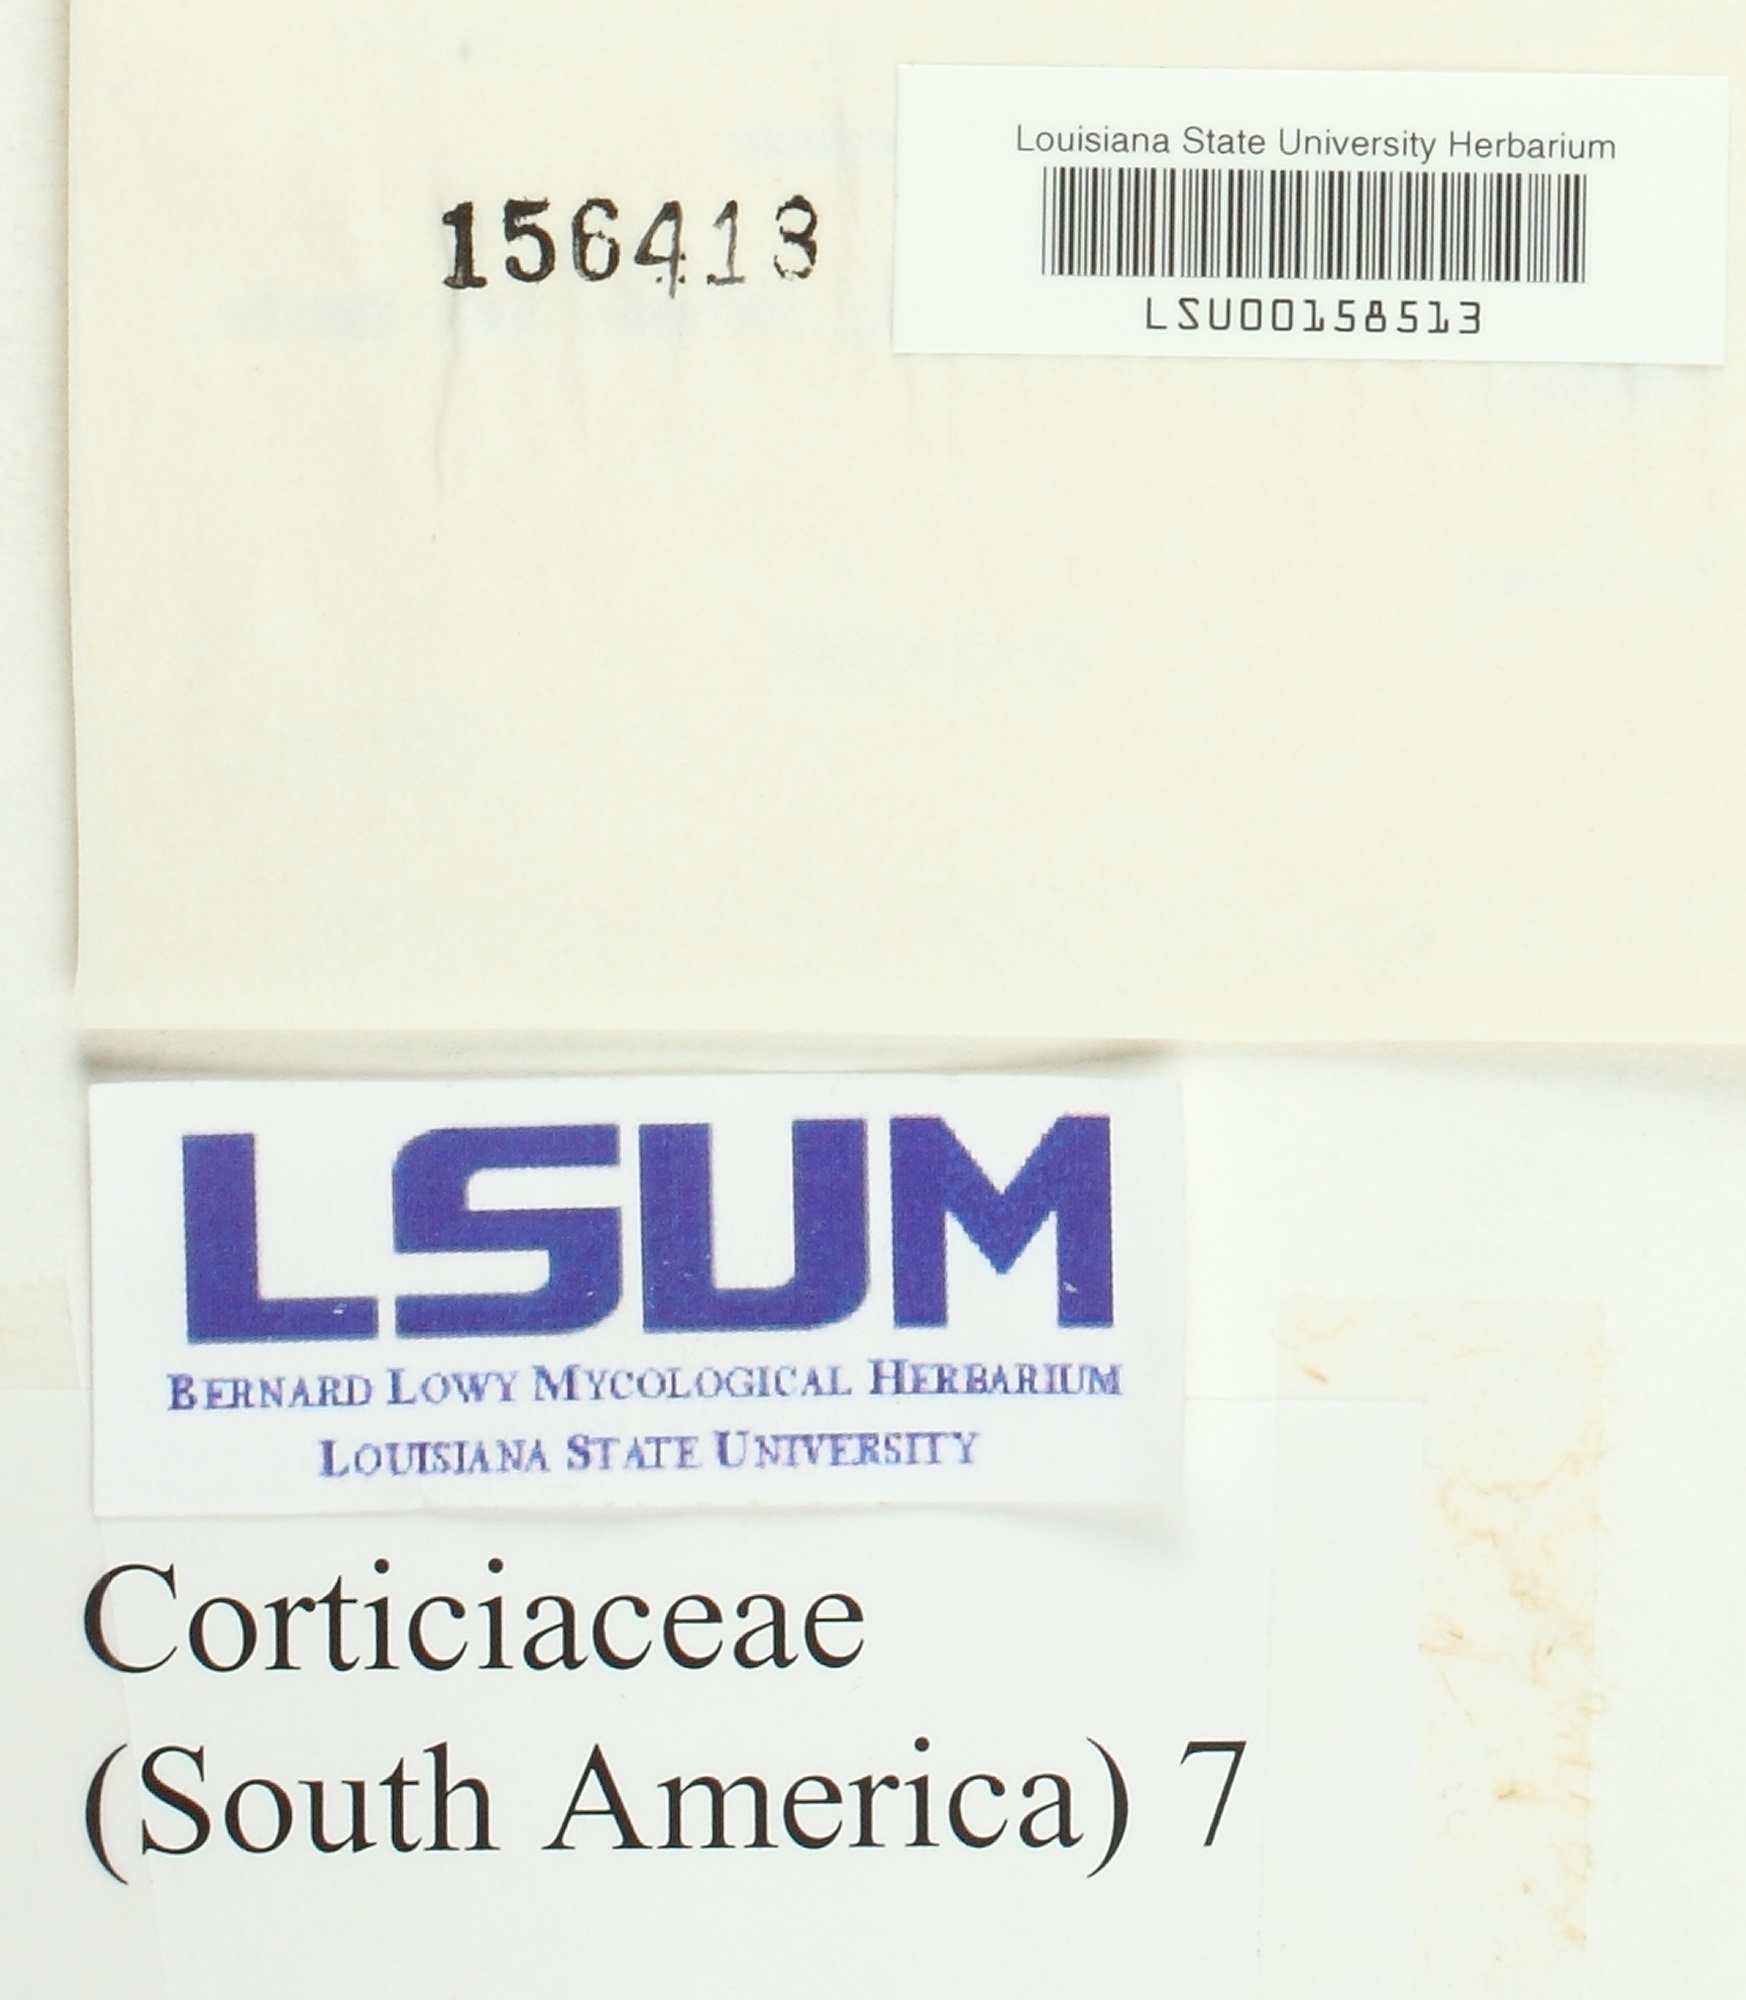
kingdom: Fungi
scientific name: Fungi
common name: Fungi
